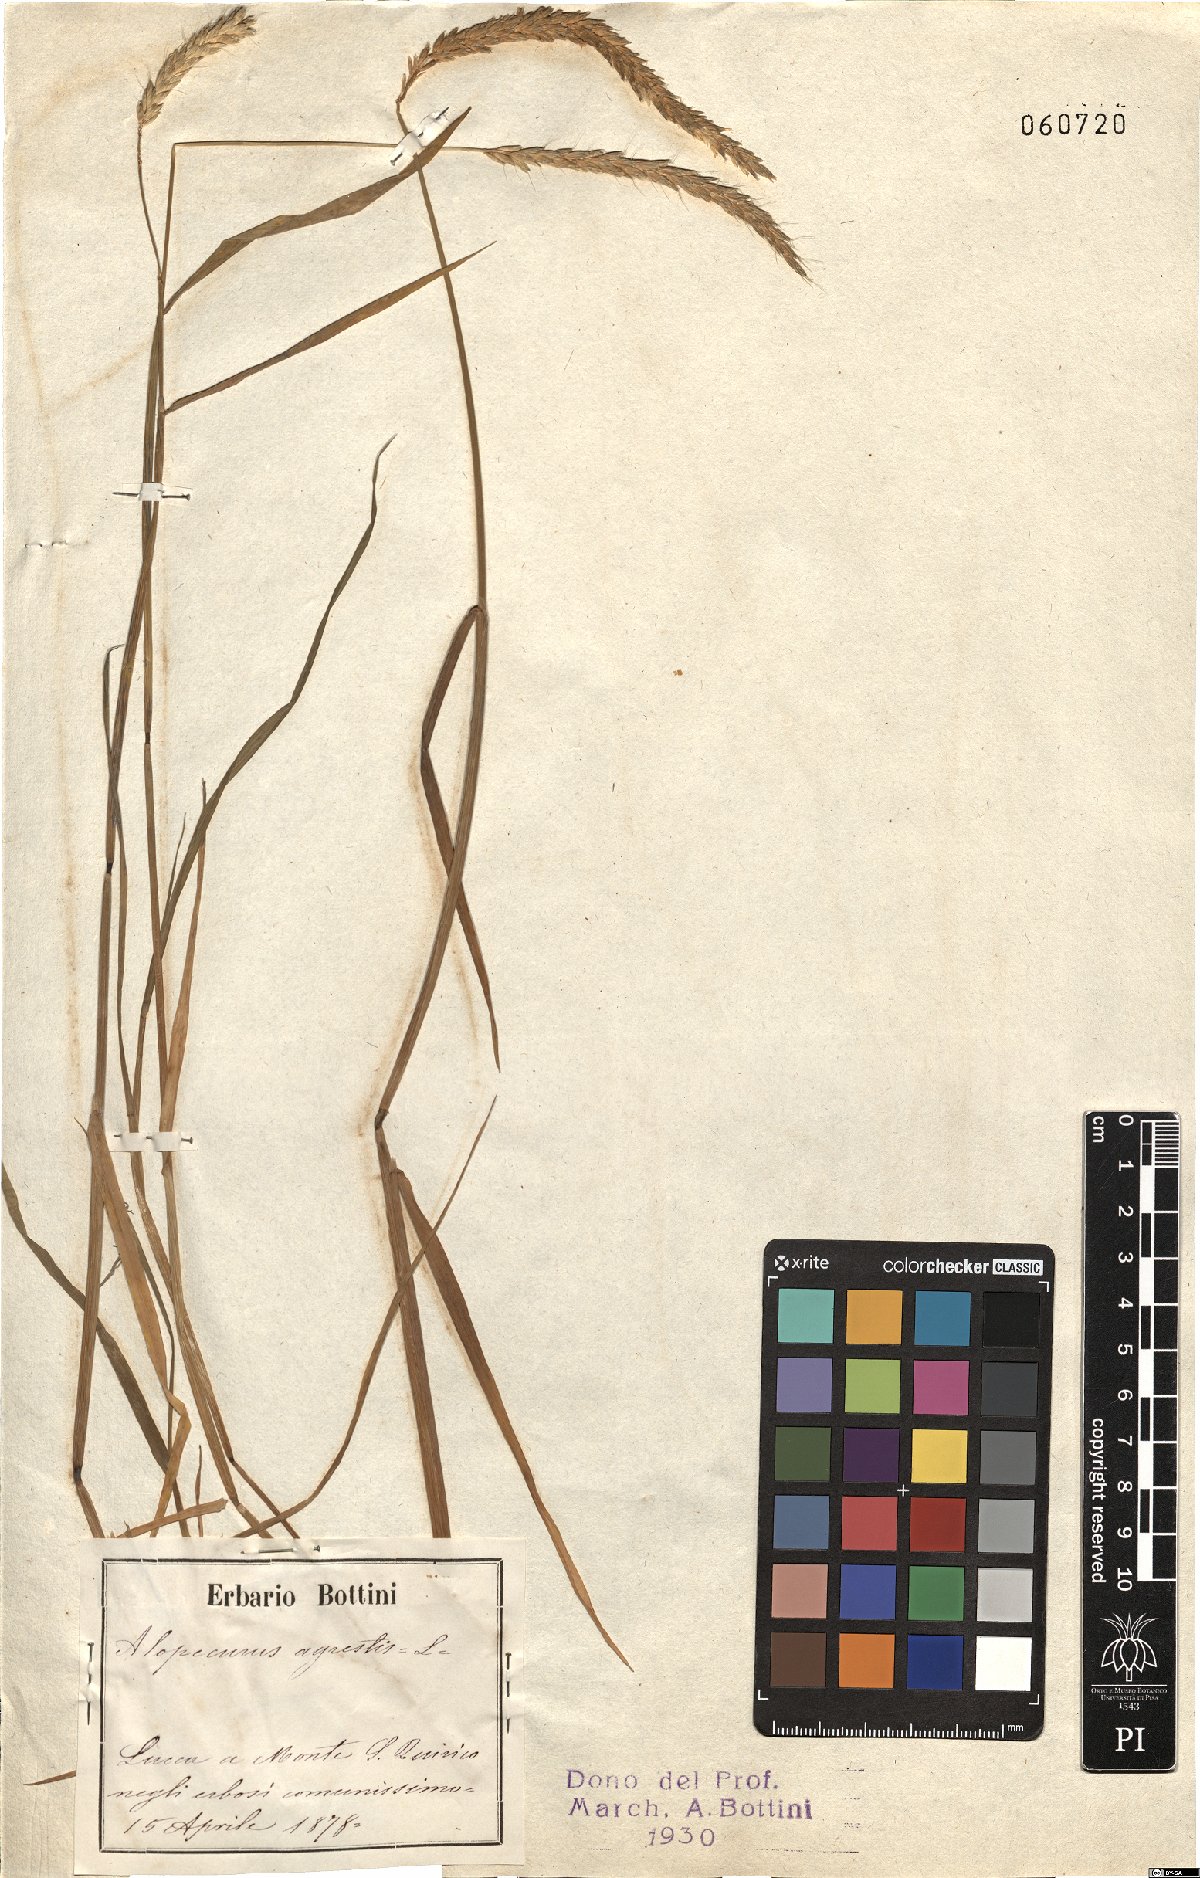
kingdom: Plantae
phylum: Tracheophyta
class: Liliopsida
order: Poales
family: Poaceae
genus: Alopecurus
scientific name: Alopecurus myosuroides
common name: Black-grass
